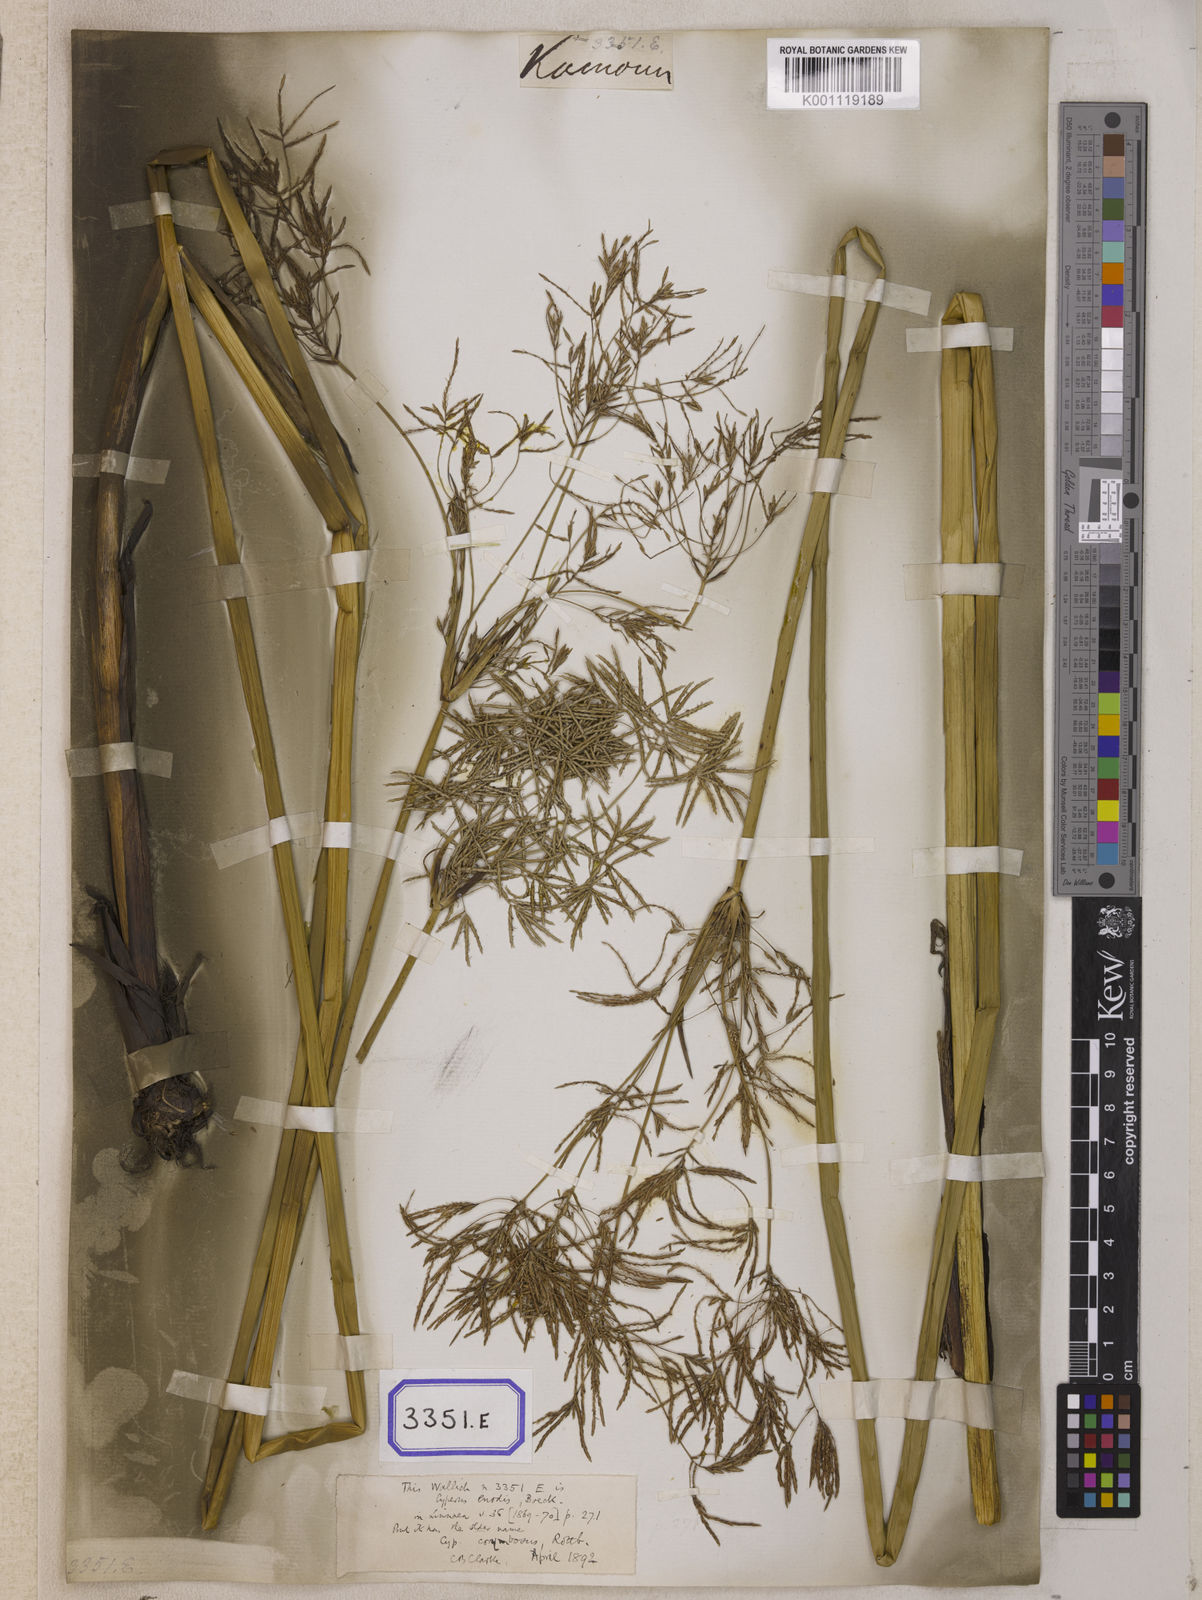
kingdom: Plantae
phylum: Tracheophyta
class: Liliopsida
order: Poales
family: Cyperaceae
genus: Cyperus
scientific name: Cyperus
